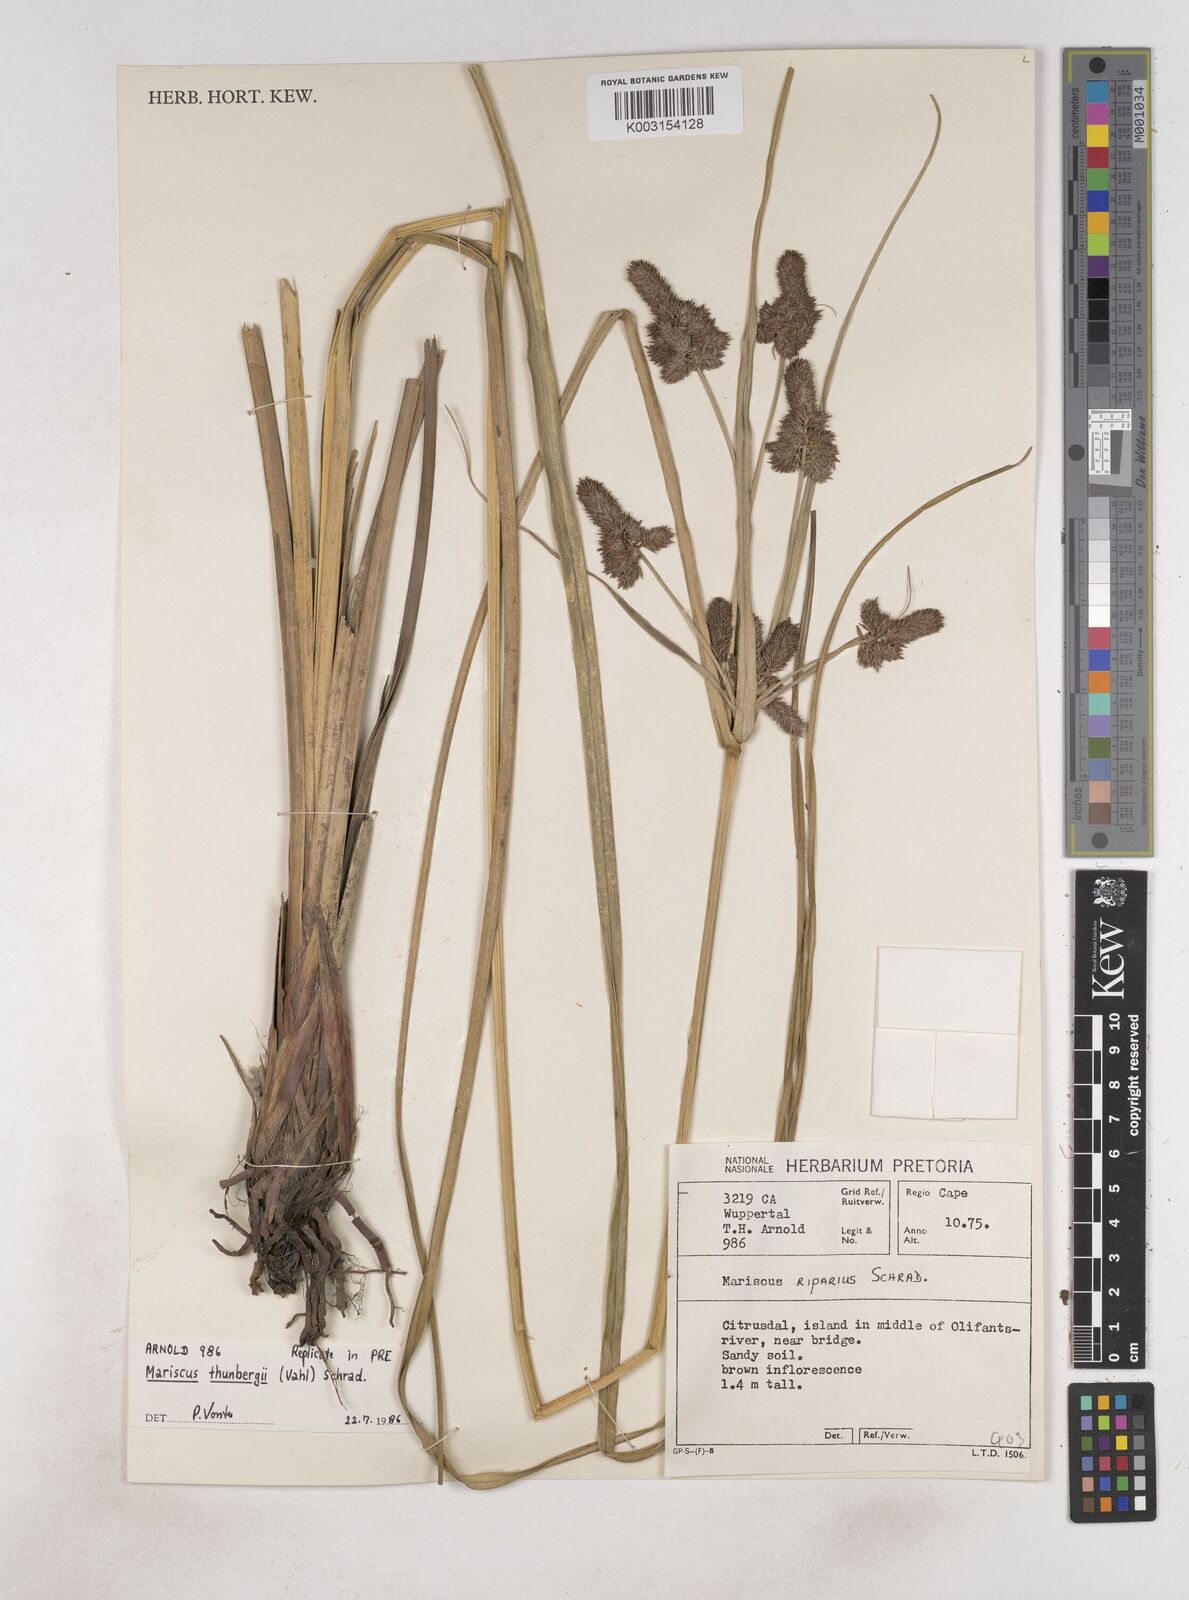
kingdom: Plantae
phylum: Tracheophyta
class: Liliopsida
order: Poales
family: Cyperaceae
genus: Cyperus
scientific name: Cyperus thunbergii
